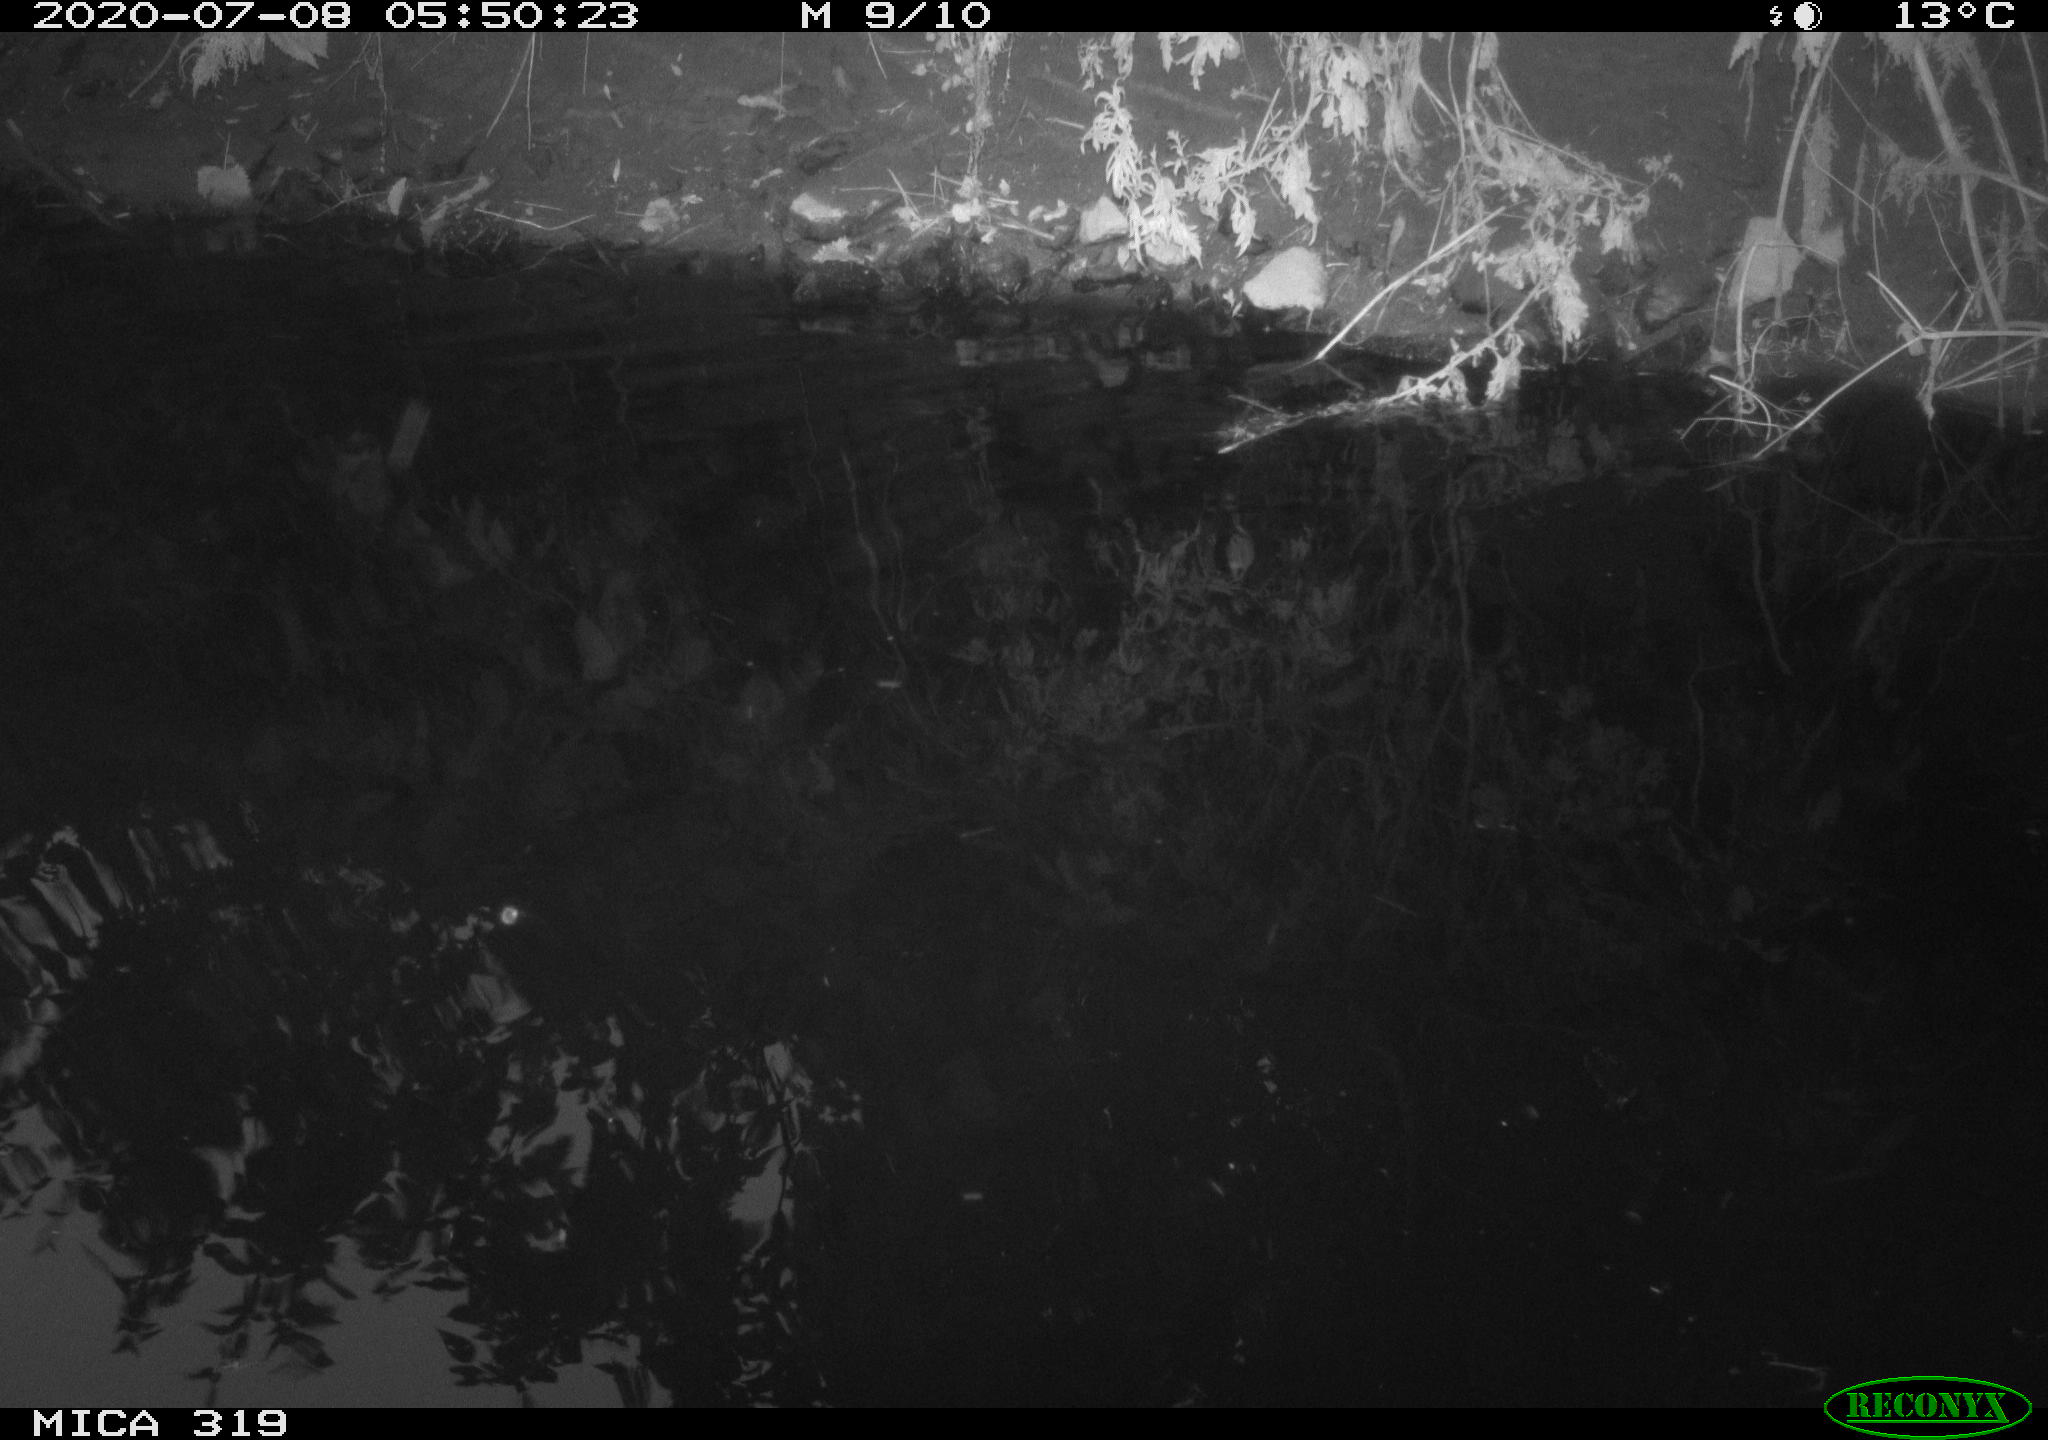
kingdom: Animalia
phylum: Chordata
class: Aves
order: Anseriformes
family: Anatidae
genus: Anas
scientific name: Anas platyrhynchos
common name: Mallard
